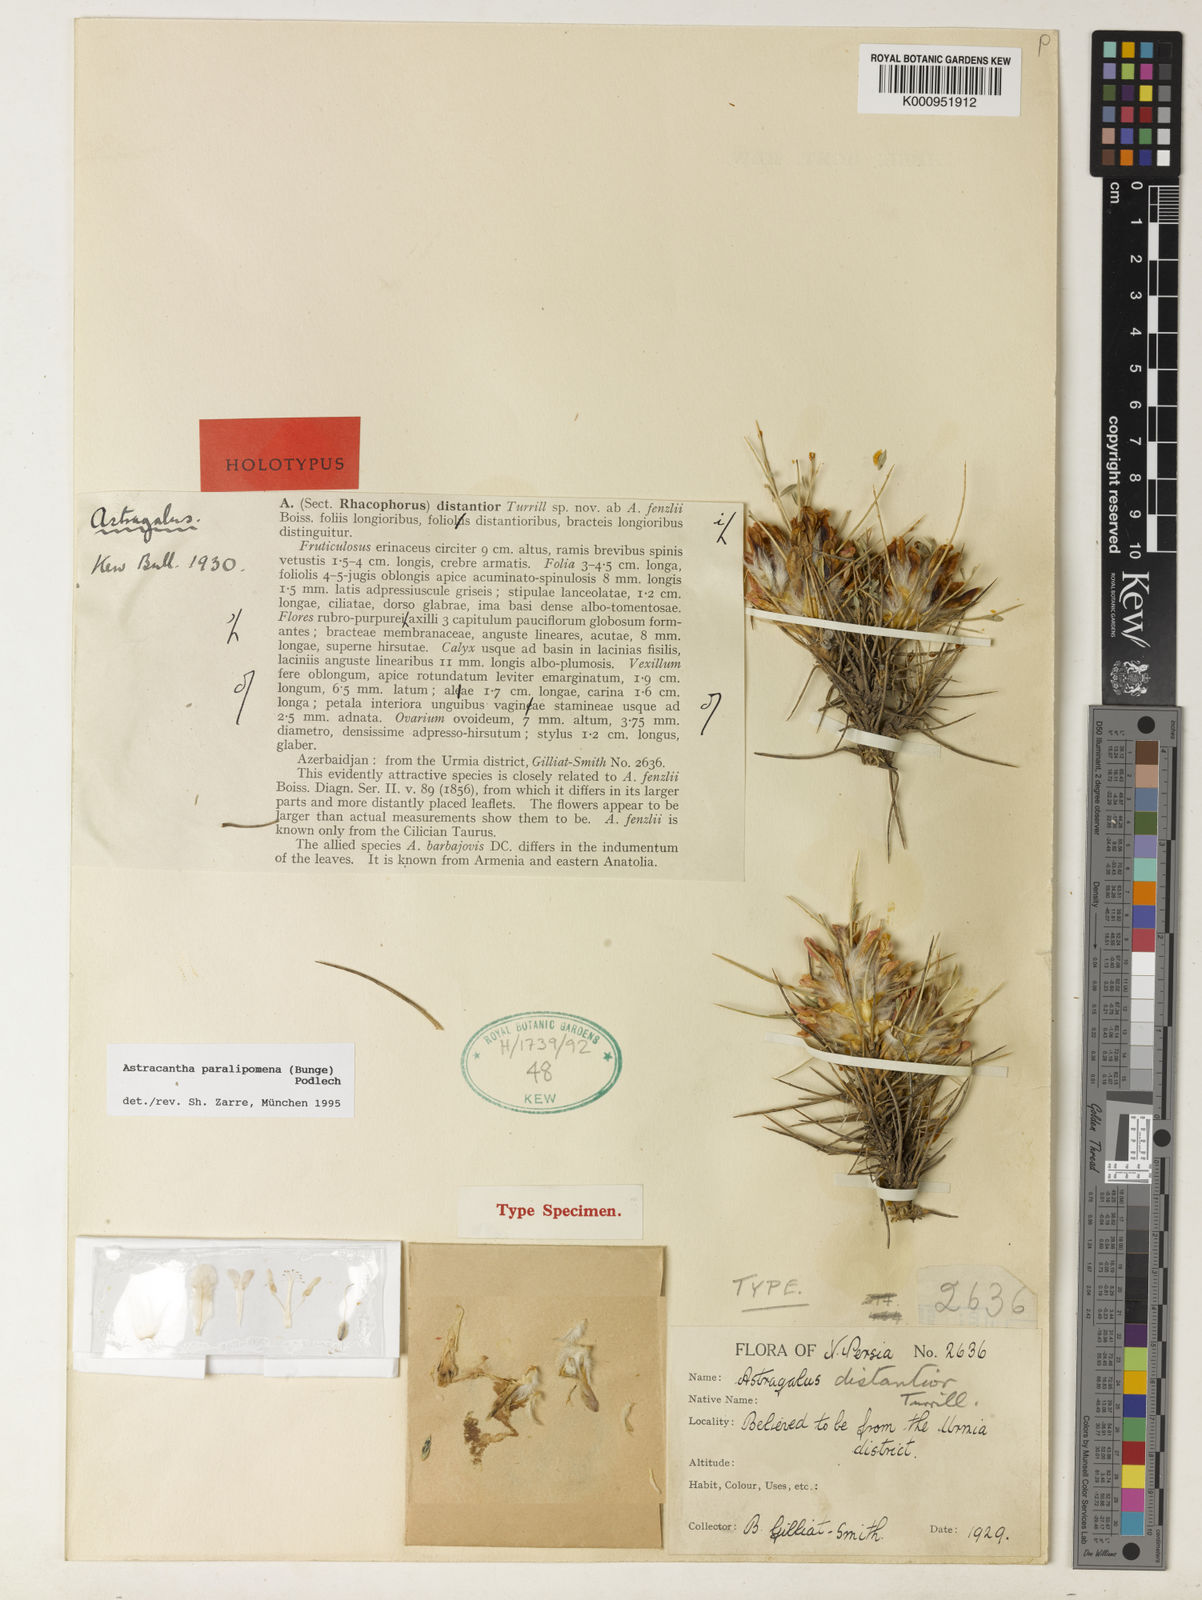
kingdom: Plantae
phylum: Tracheophyta
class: Magnoliopsida
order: Fabales
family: Fabaceae
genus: Astragalus
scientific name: Astragalus paralipomenus
